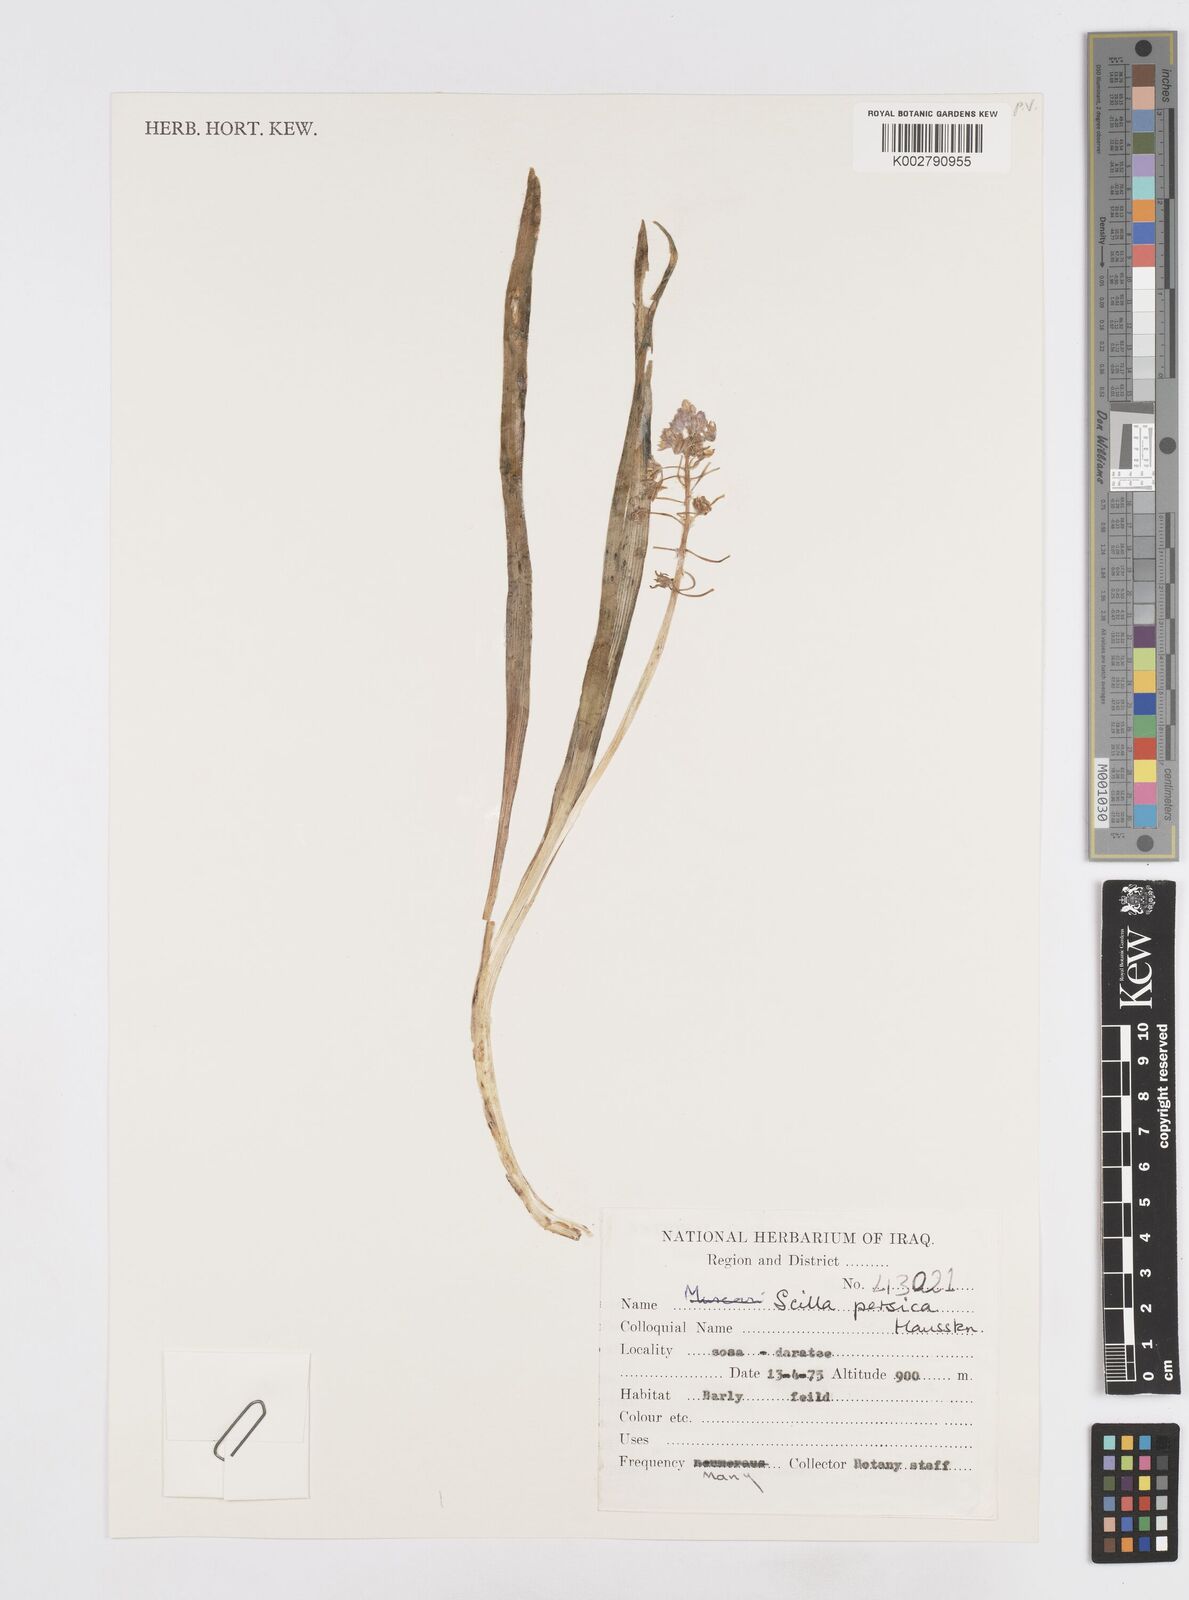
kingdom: Plantae
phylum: Tracheophyta
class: Liliopsida
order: Asparagales
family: Asparagaceae
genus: Zagrosia
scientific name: Zagrosia persica
